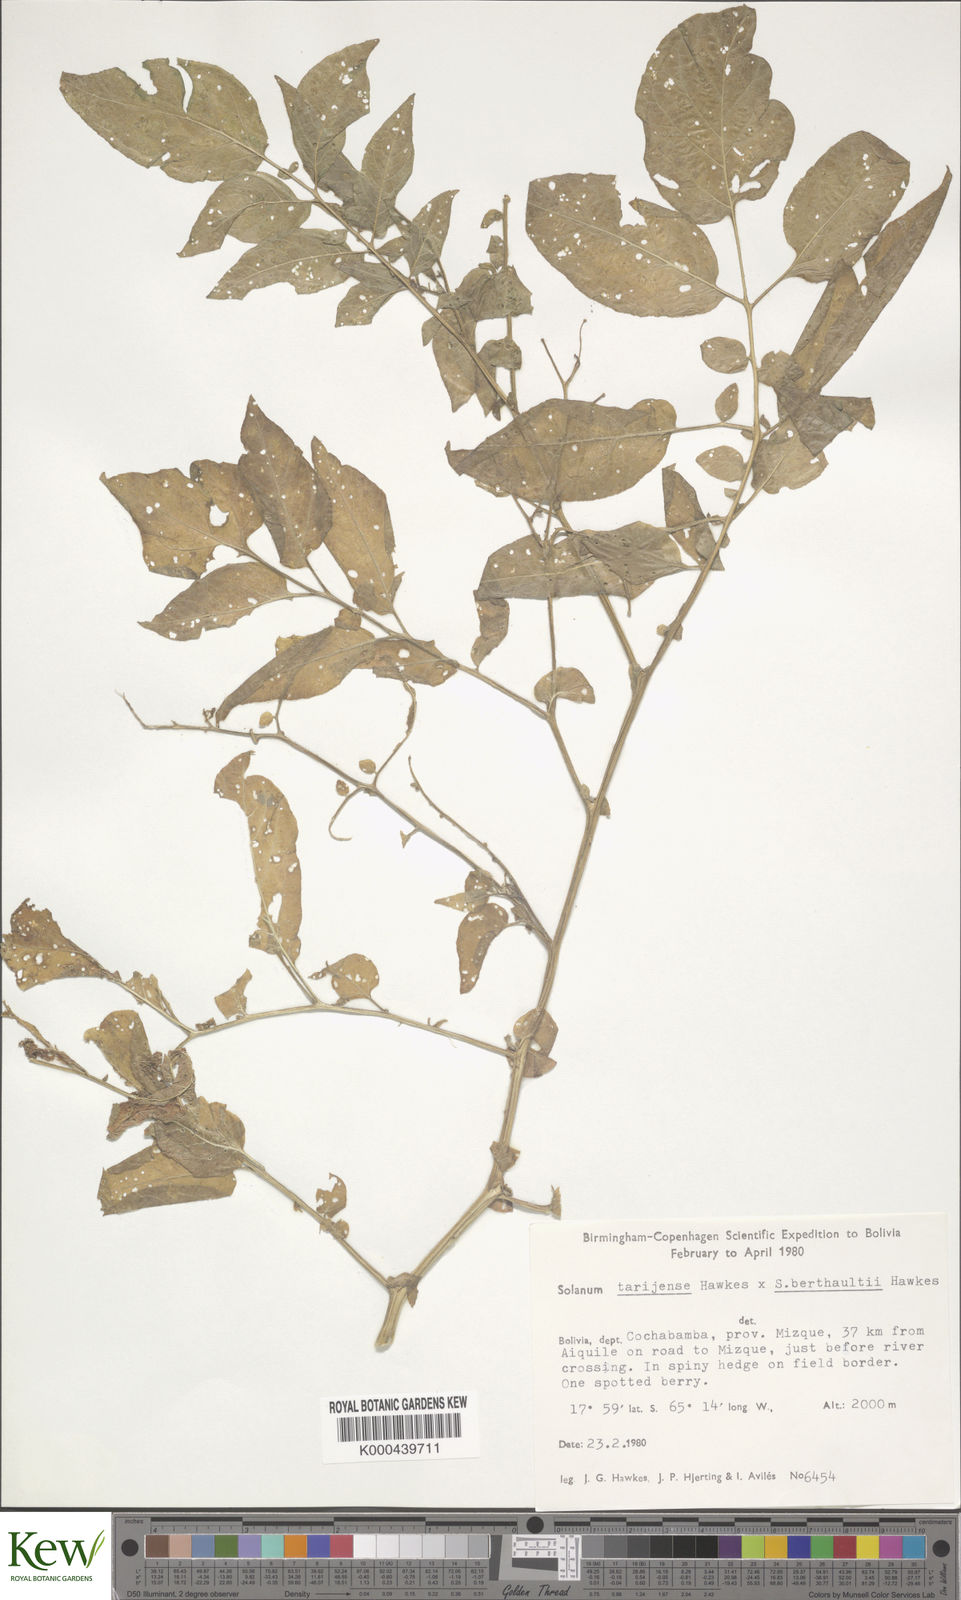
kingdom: Plantae
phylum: Tracheophyta
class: Magnoliopsida
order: Solanales
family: Solanaceae
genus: Solanum
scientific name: Solanum tarijense
